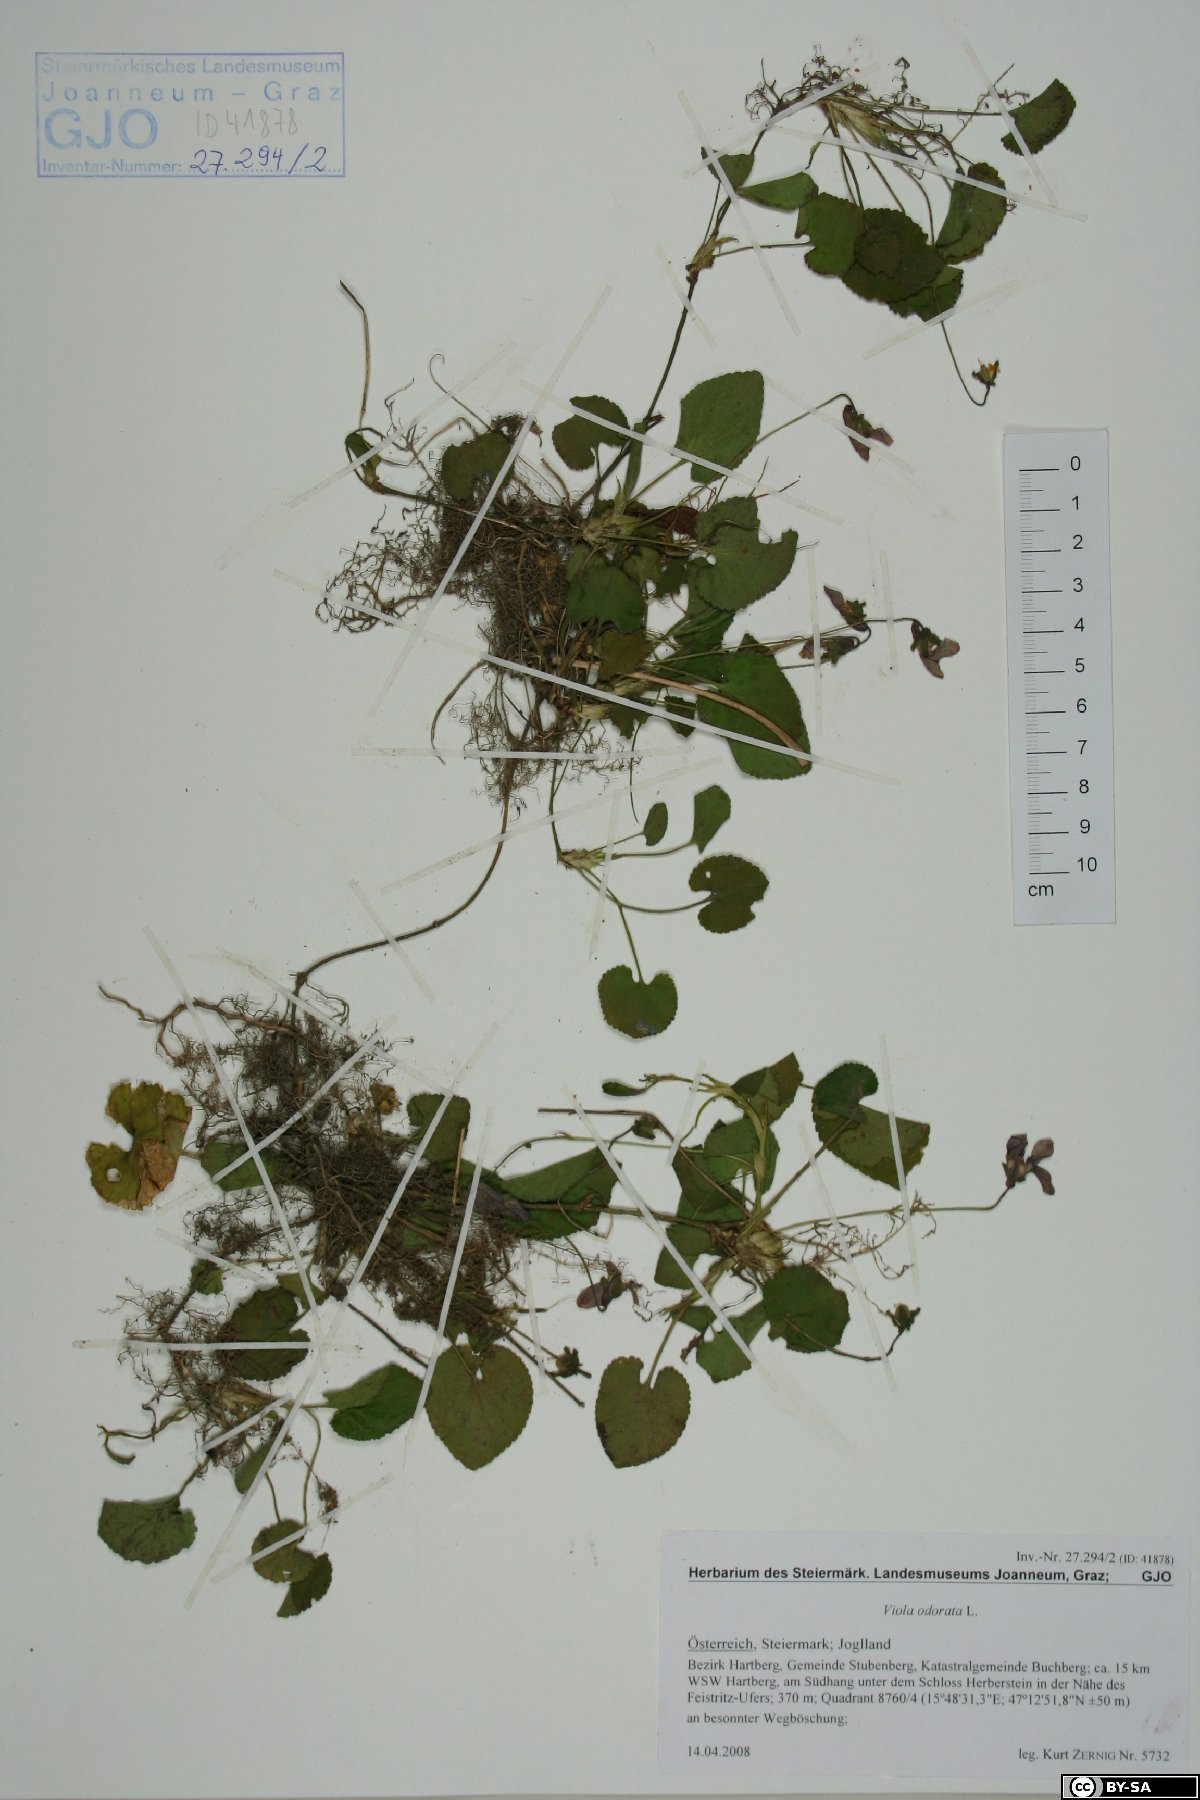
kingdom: Plantae
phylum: Tracheophyta
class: Magnoliopsida
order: Malpighiales
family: Violaceae
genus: Viola
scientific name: Viola odorata
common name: Sweet violet
